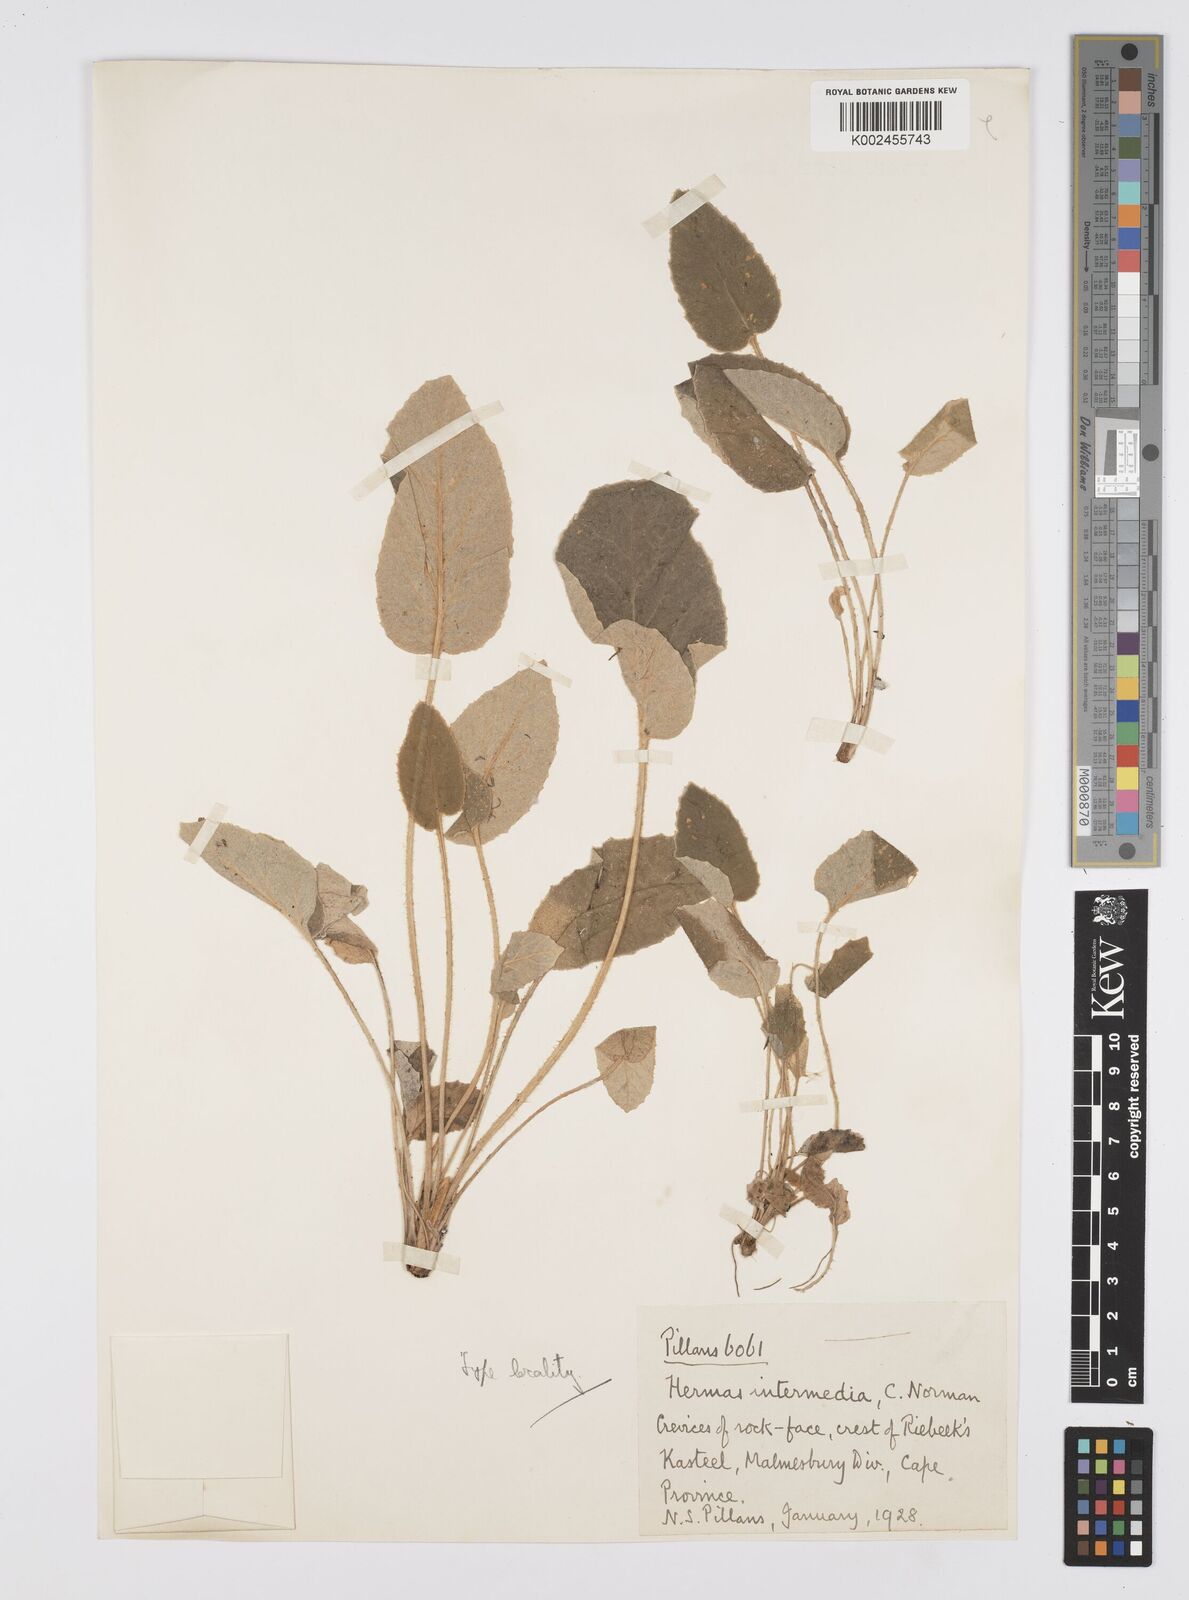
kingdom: Plantae
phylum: Tracheophyta
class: Magnoliopsida
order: Apiales
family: Apiaceae
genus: Hermas
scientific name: Hermas intermedia
